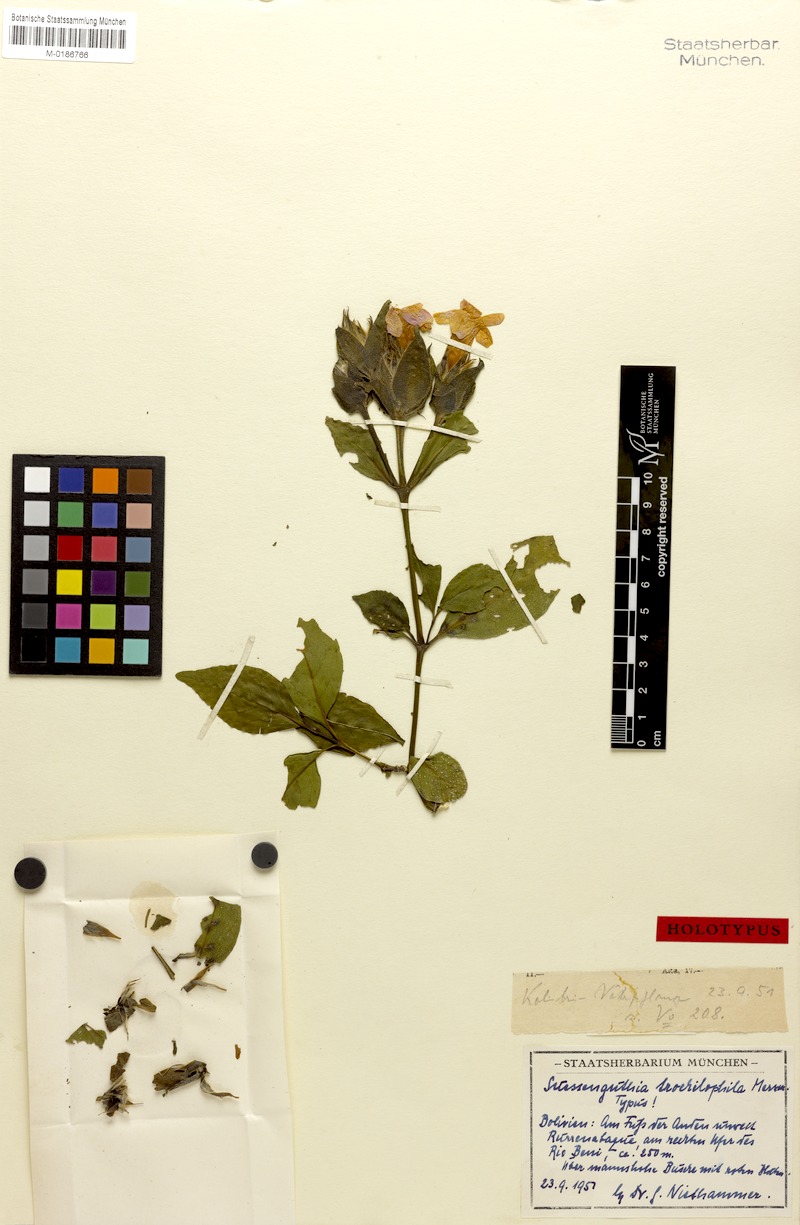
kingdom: Plantae
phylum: Tracheophyta
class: Magnoliopsida
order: Lamiales
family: Acanthaceae
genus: Suessenguthia
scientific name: Suessenguthia trochilophila
